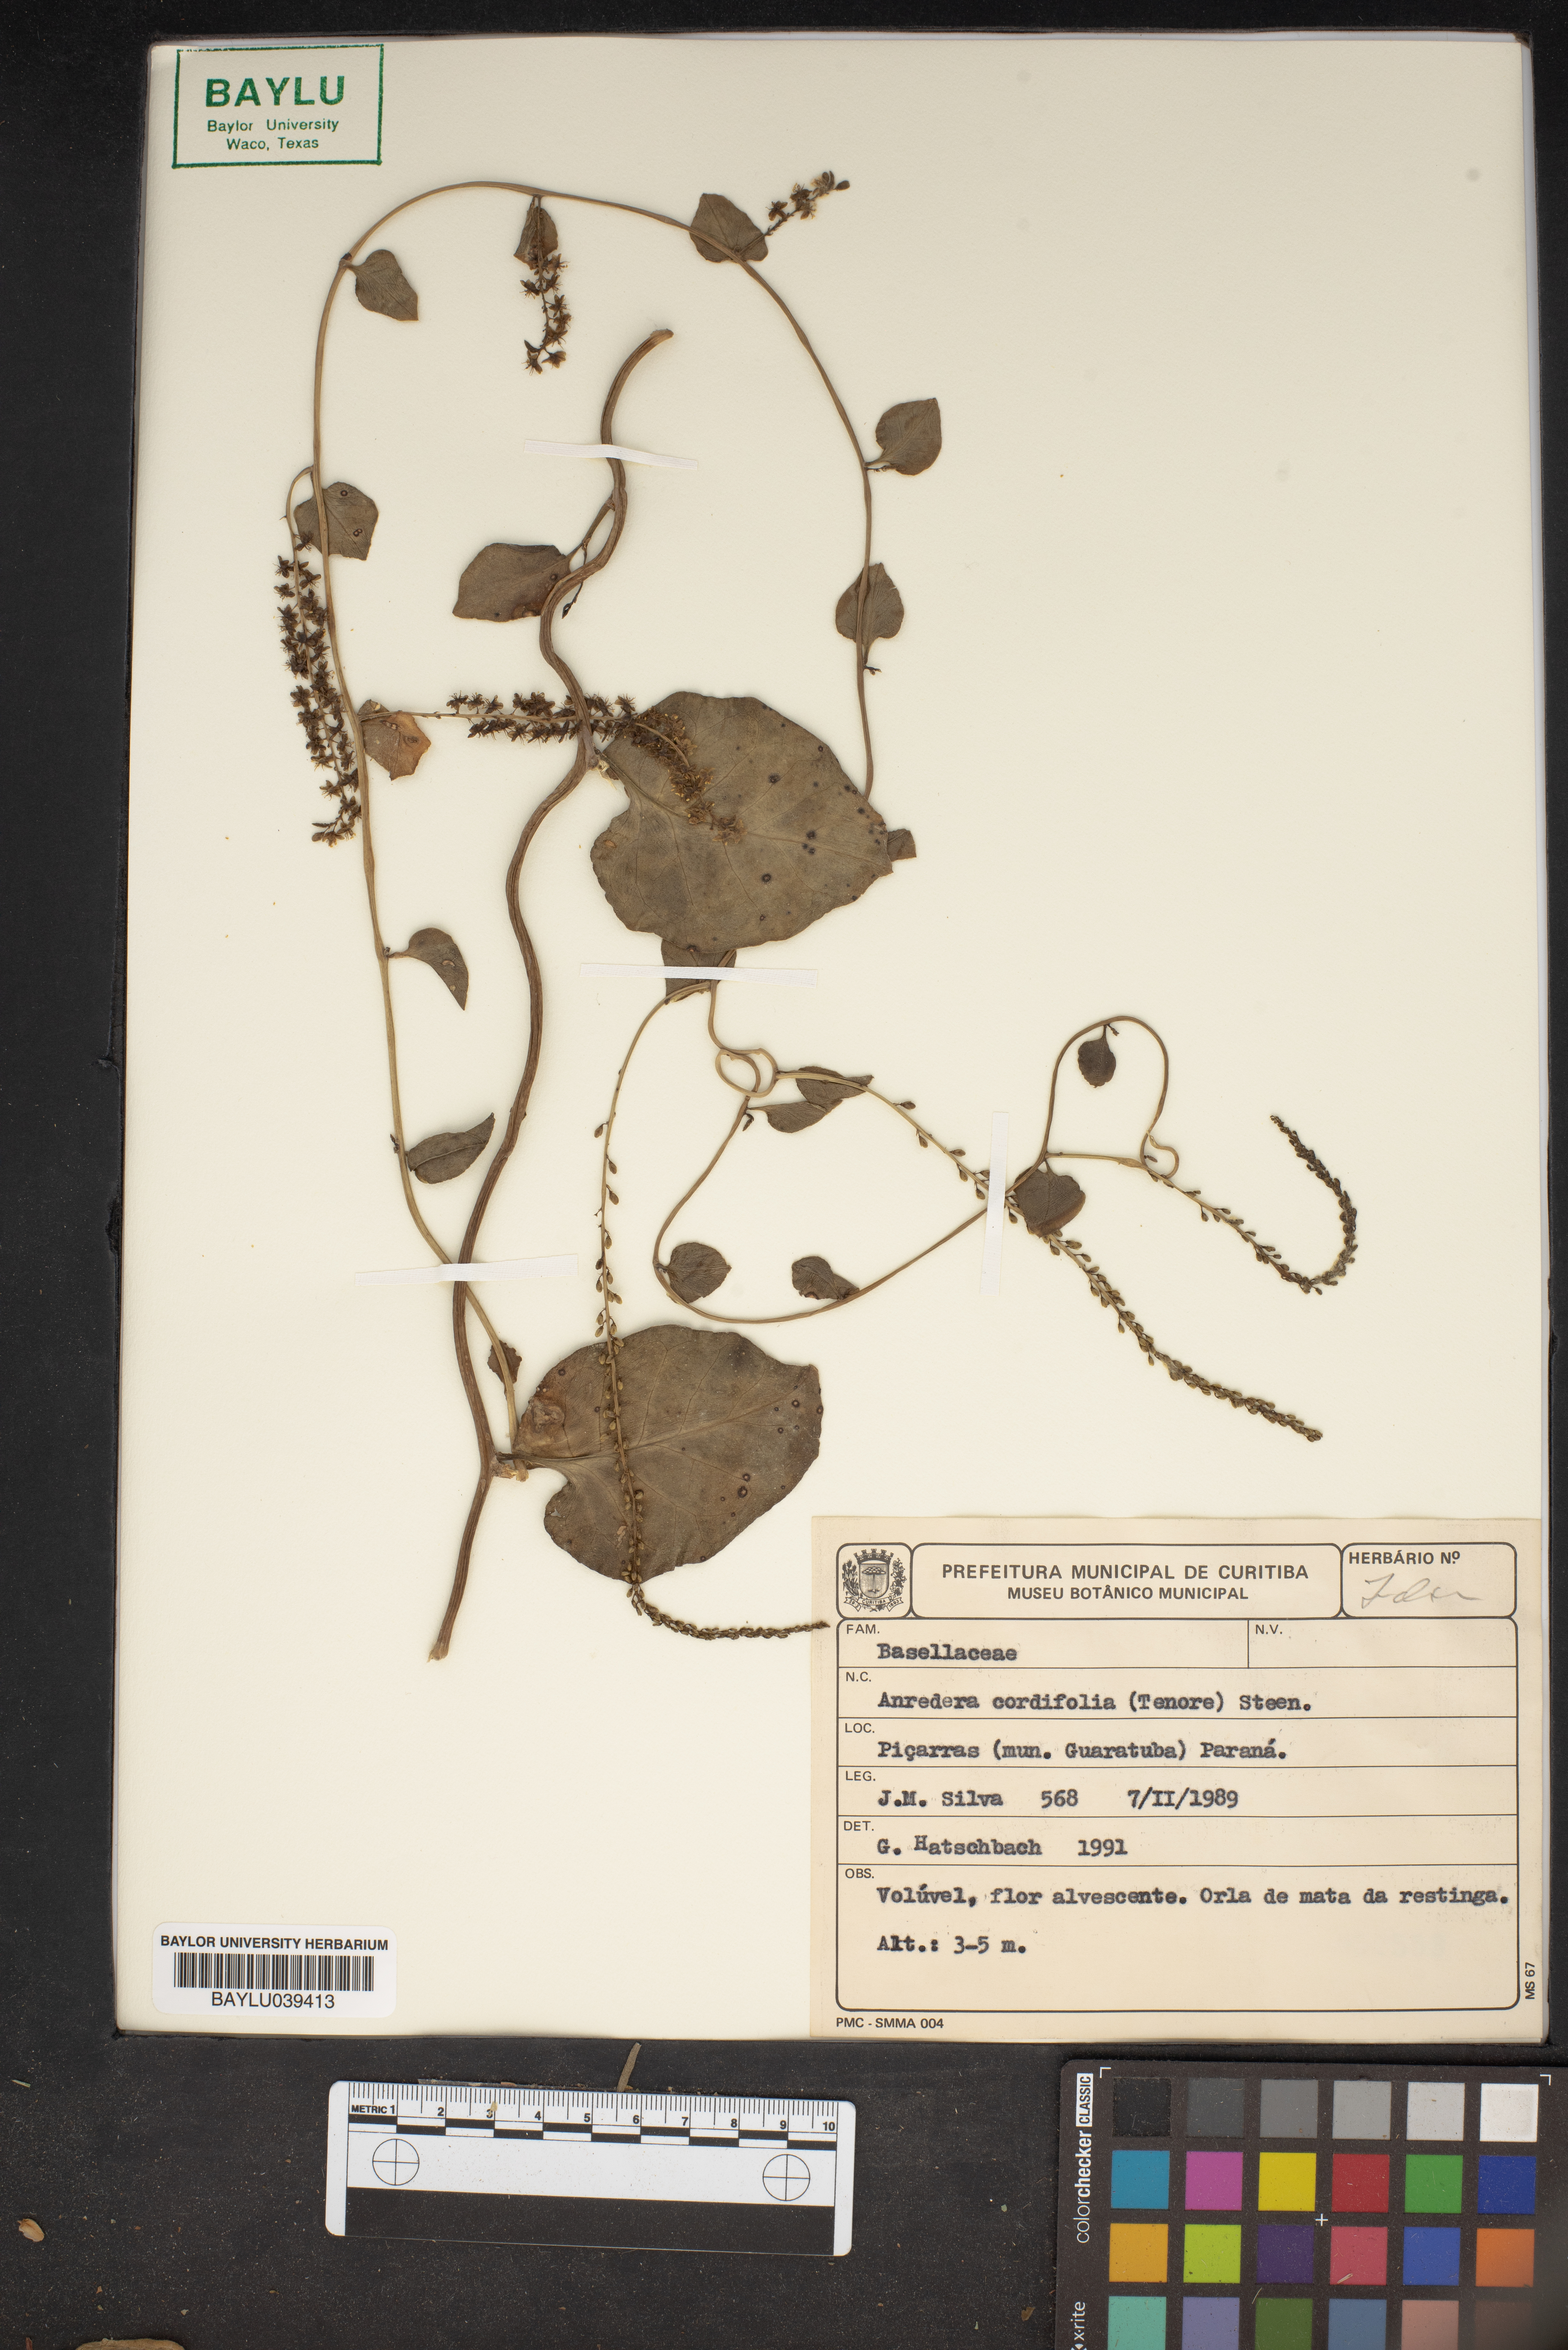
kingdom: Plantae
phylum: Tracheophyta
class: Magnoliopsida
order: Caryophyllales
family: Basellaceae
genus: Anredera
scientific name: Anredera cordifolia
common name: Heartleaf madeiravine
